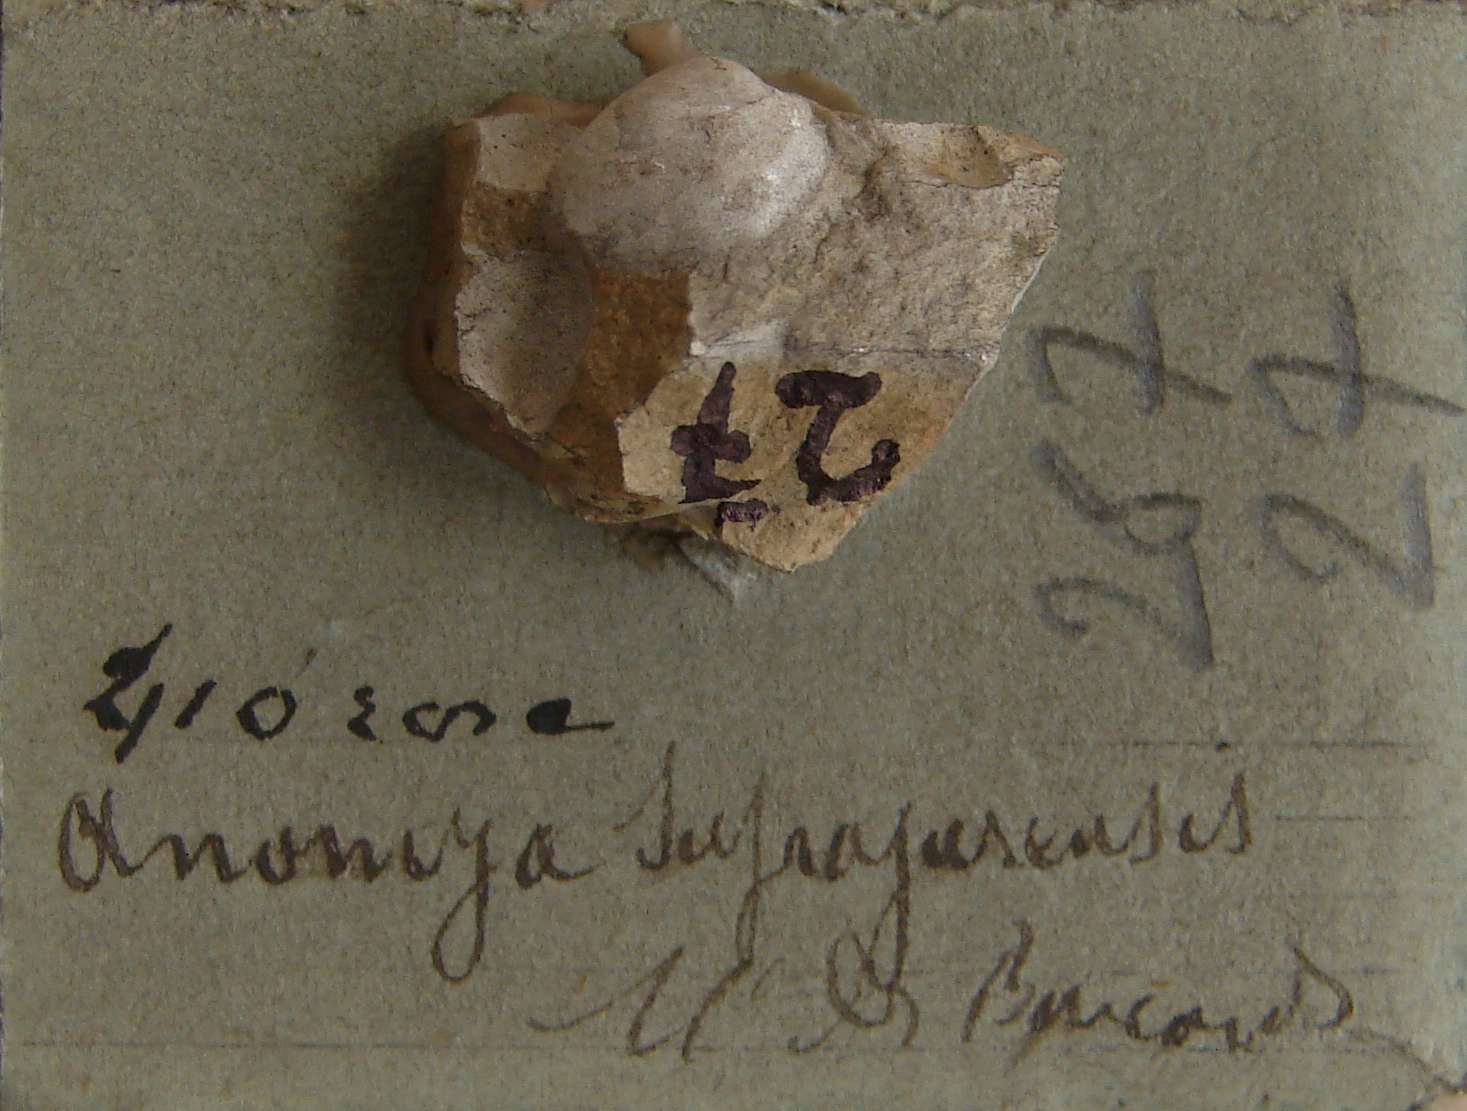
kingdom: Animalia
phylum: Mollusca
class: Bivalvia
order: Pectinida
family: Anomiidae
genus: Anomia
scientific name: Anomia
